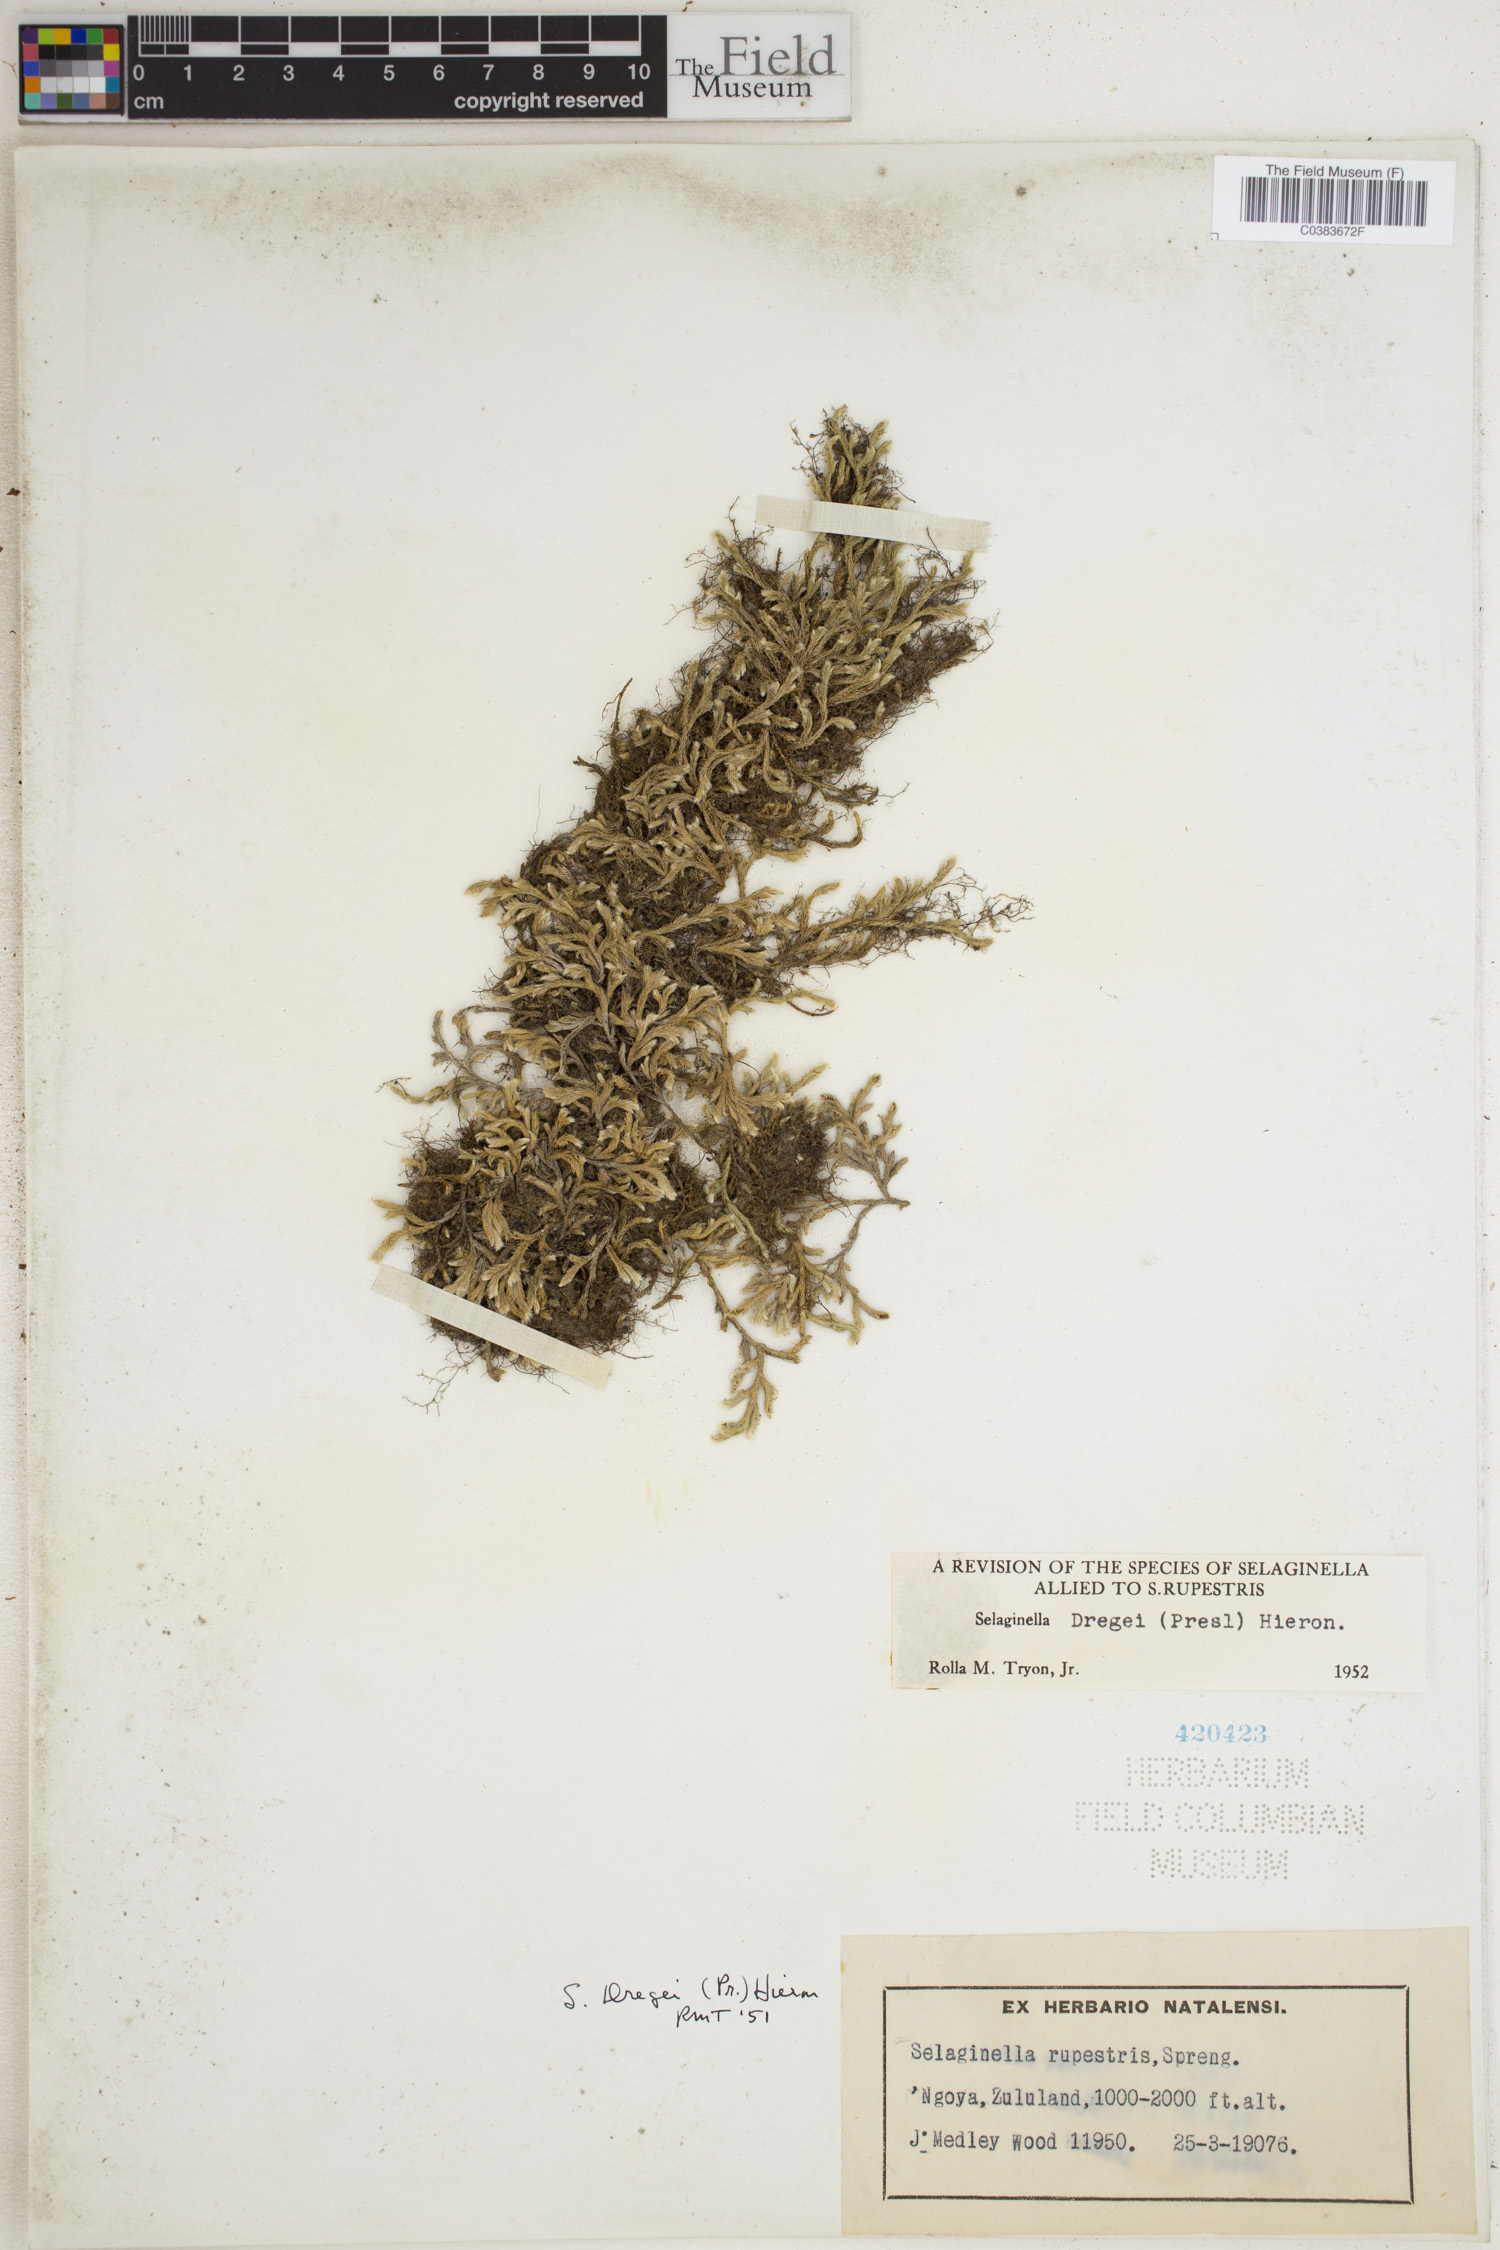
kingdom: Plantae
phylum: Tracheophyta
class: Lycopodiopsida
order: Selaginellales
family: Selaginellaceae
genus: Selaginella
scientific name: Selaginella dregei
